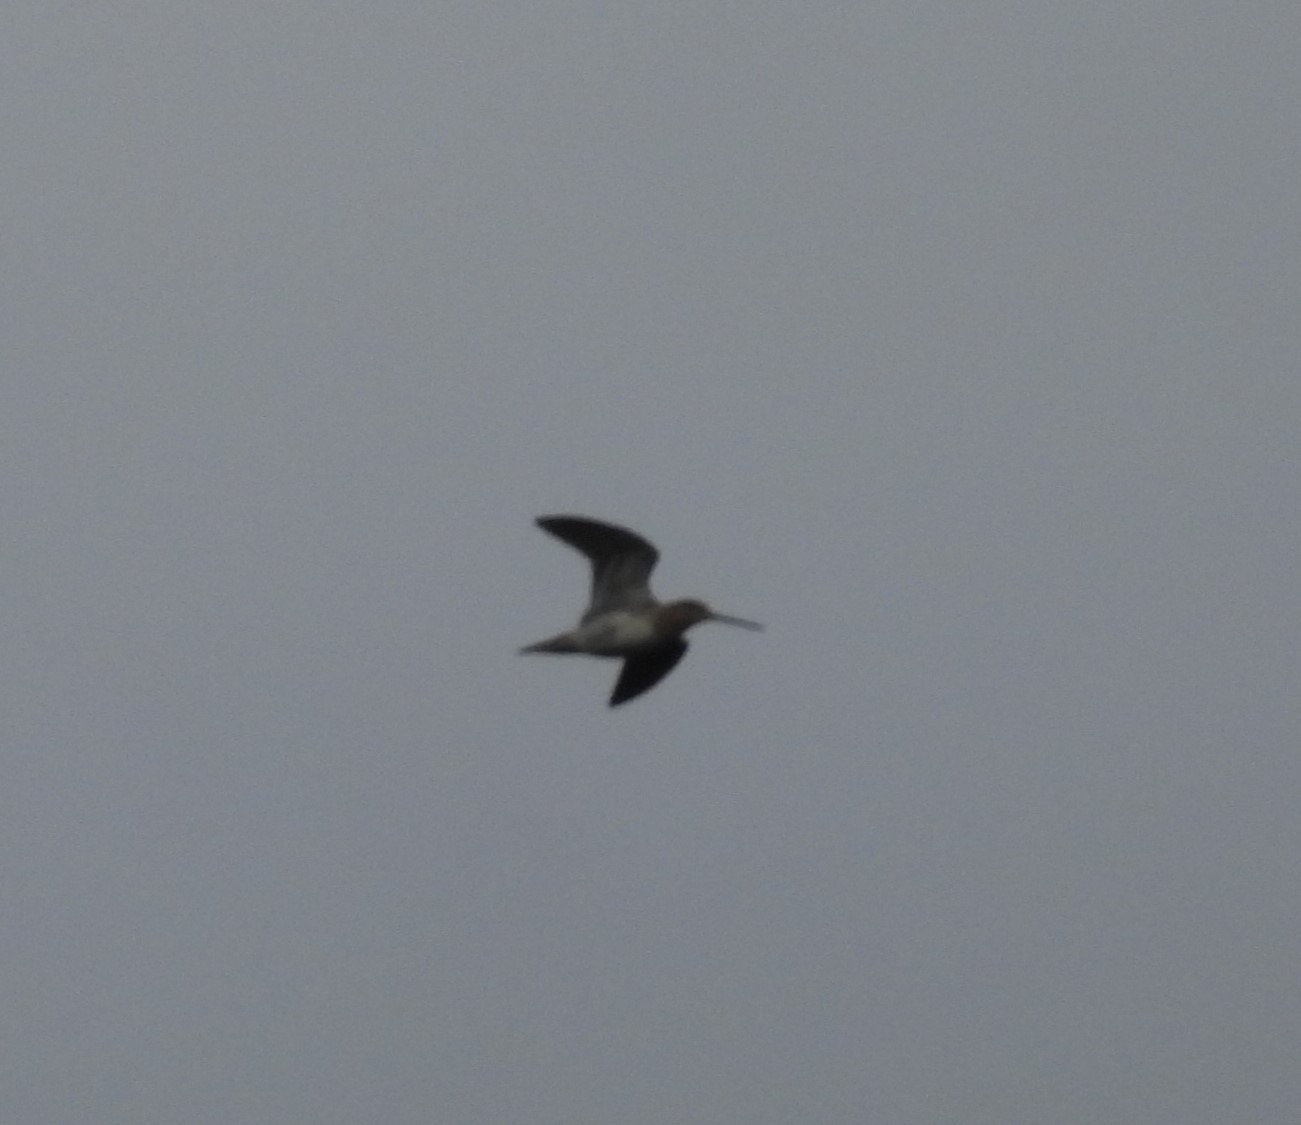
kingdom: Animalia
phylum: Chordata
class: Aves
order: Charadriiformes
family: Scolopacidae
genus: Gallinago
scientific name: Gallinago gallinago
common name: Dobbeltbekkasin
